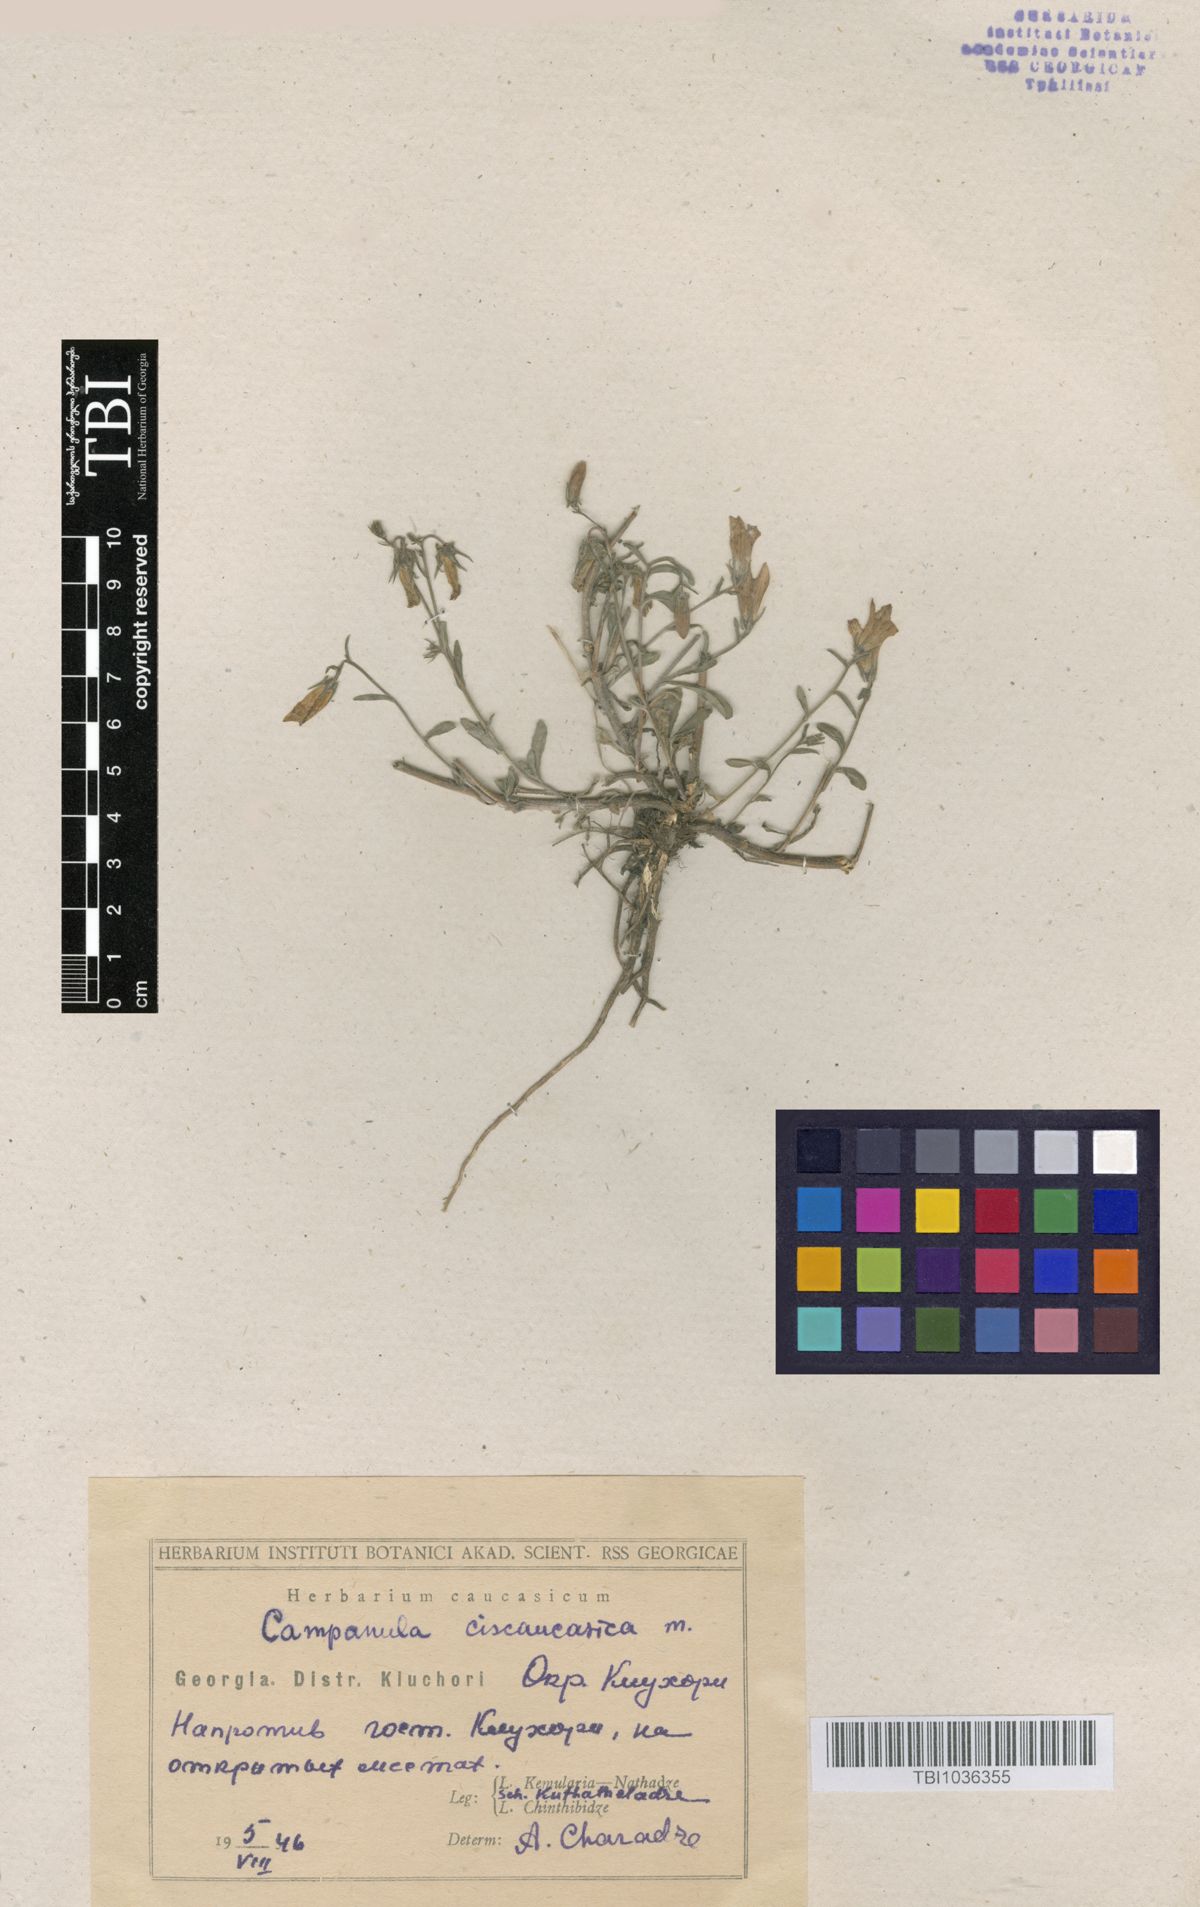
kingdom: Plantae
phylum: Tracheophyta
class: Magnoliopsida
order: Asterales
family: Campanulaceae
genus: Campanula
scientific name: Campanula sibirica
